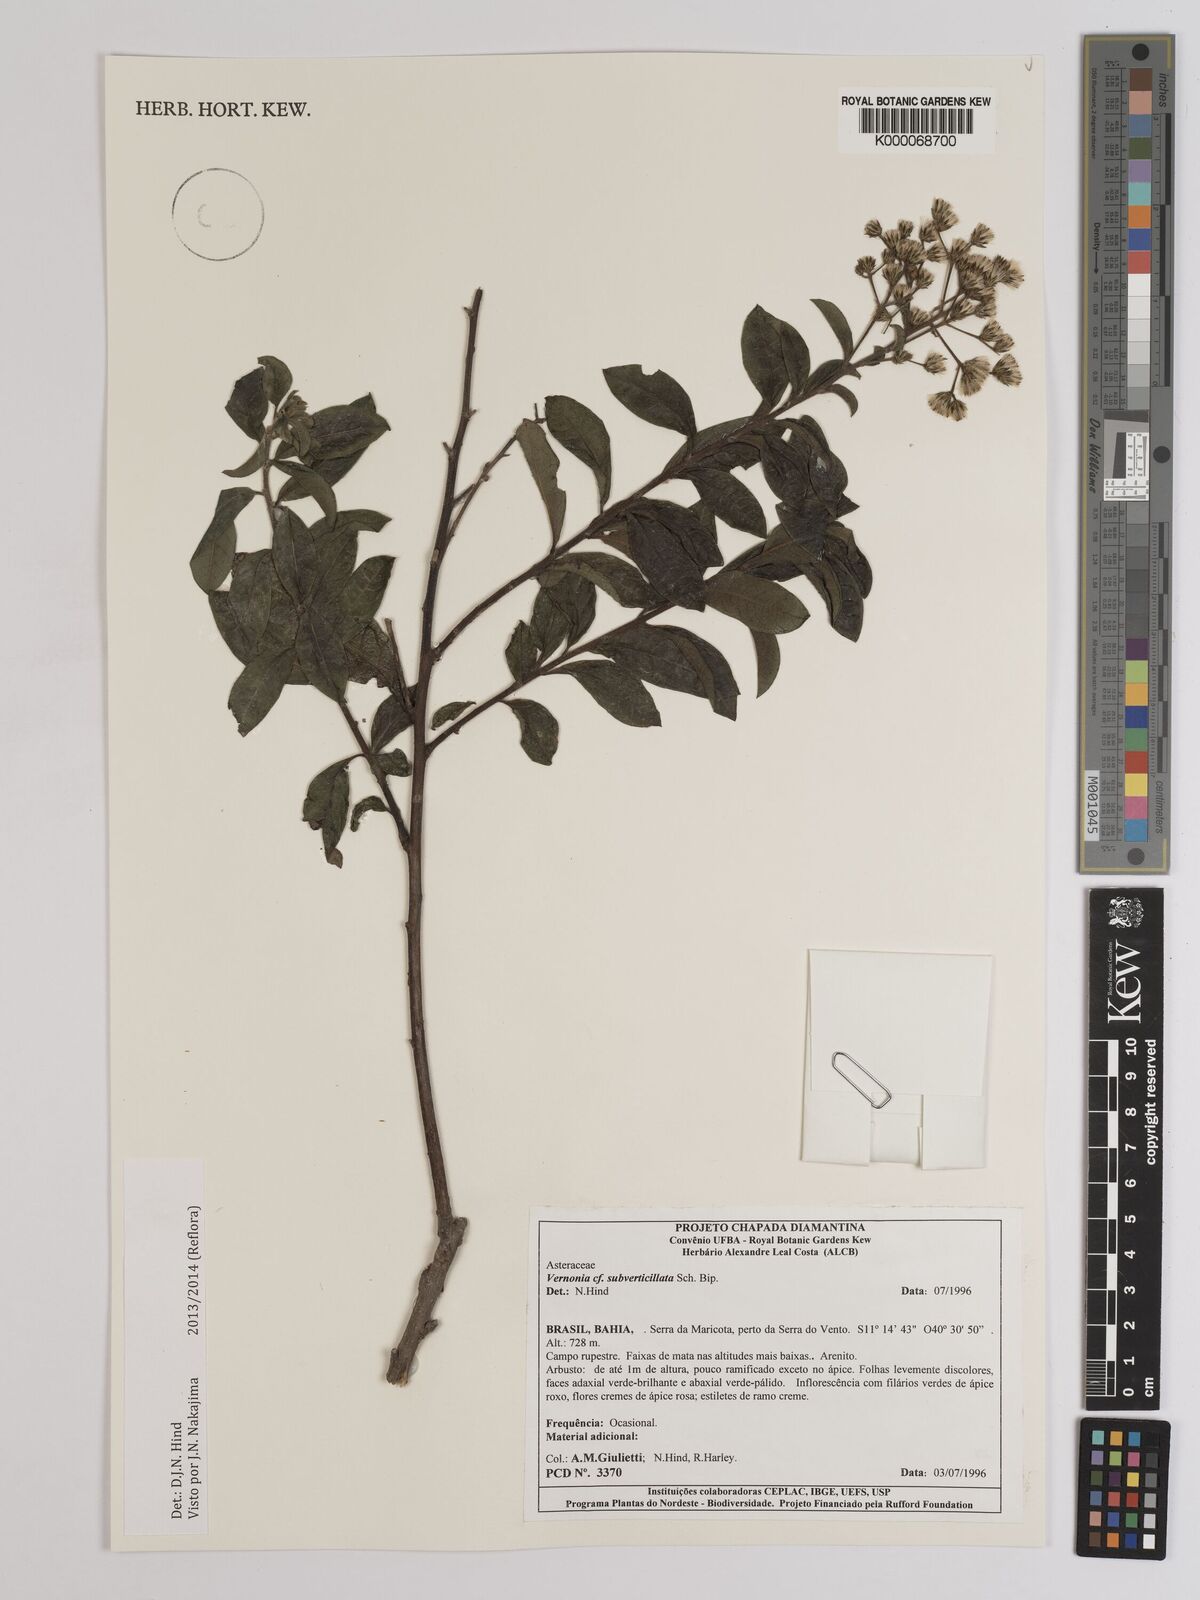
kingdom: Plantae
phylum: Tracheophyta
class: Magnoliopsida
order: Asterales
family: Asteraceae
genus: Vernonia
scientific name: Vernonia
